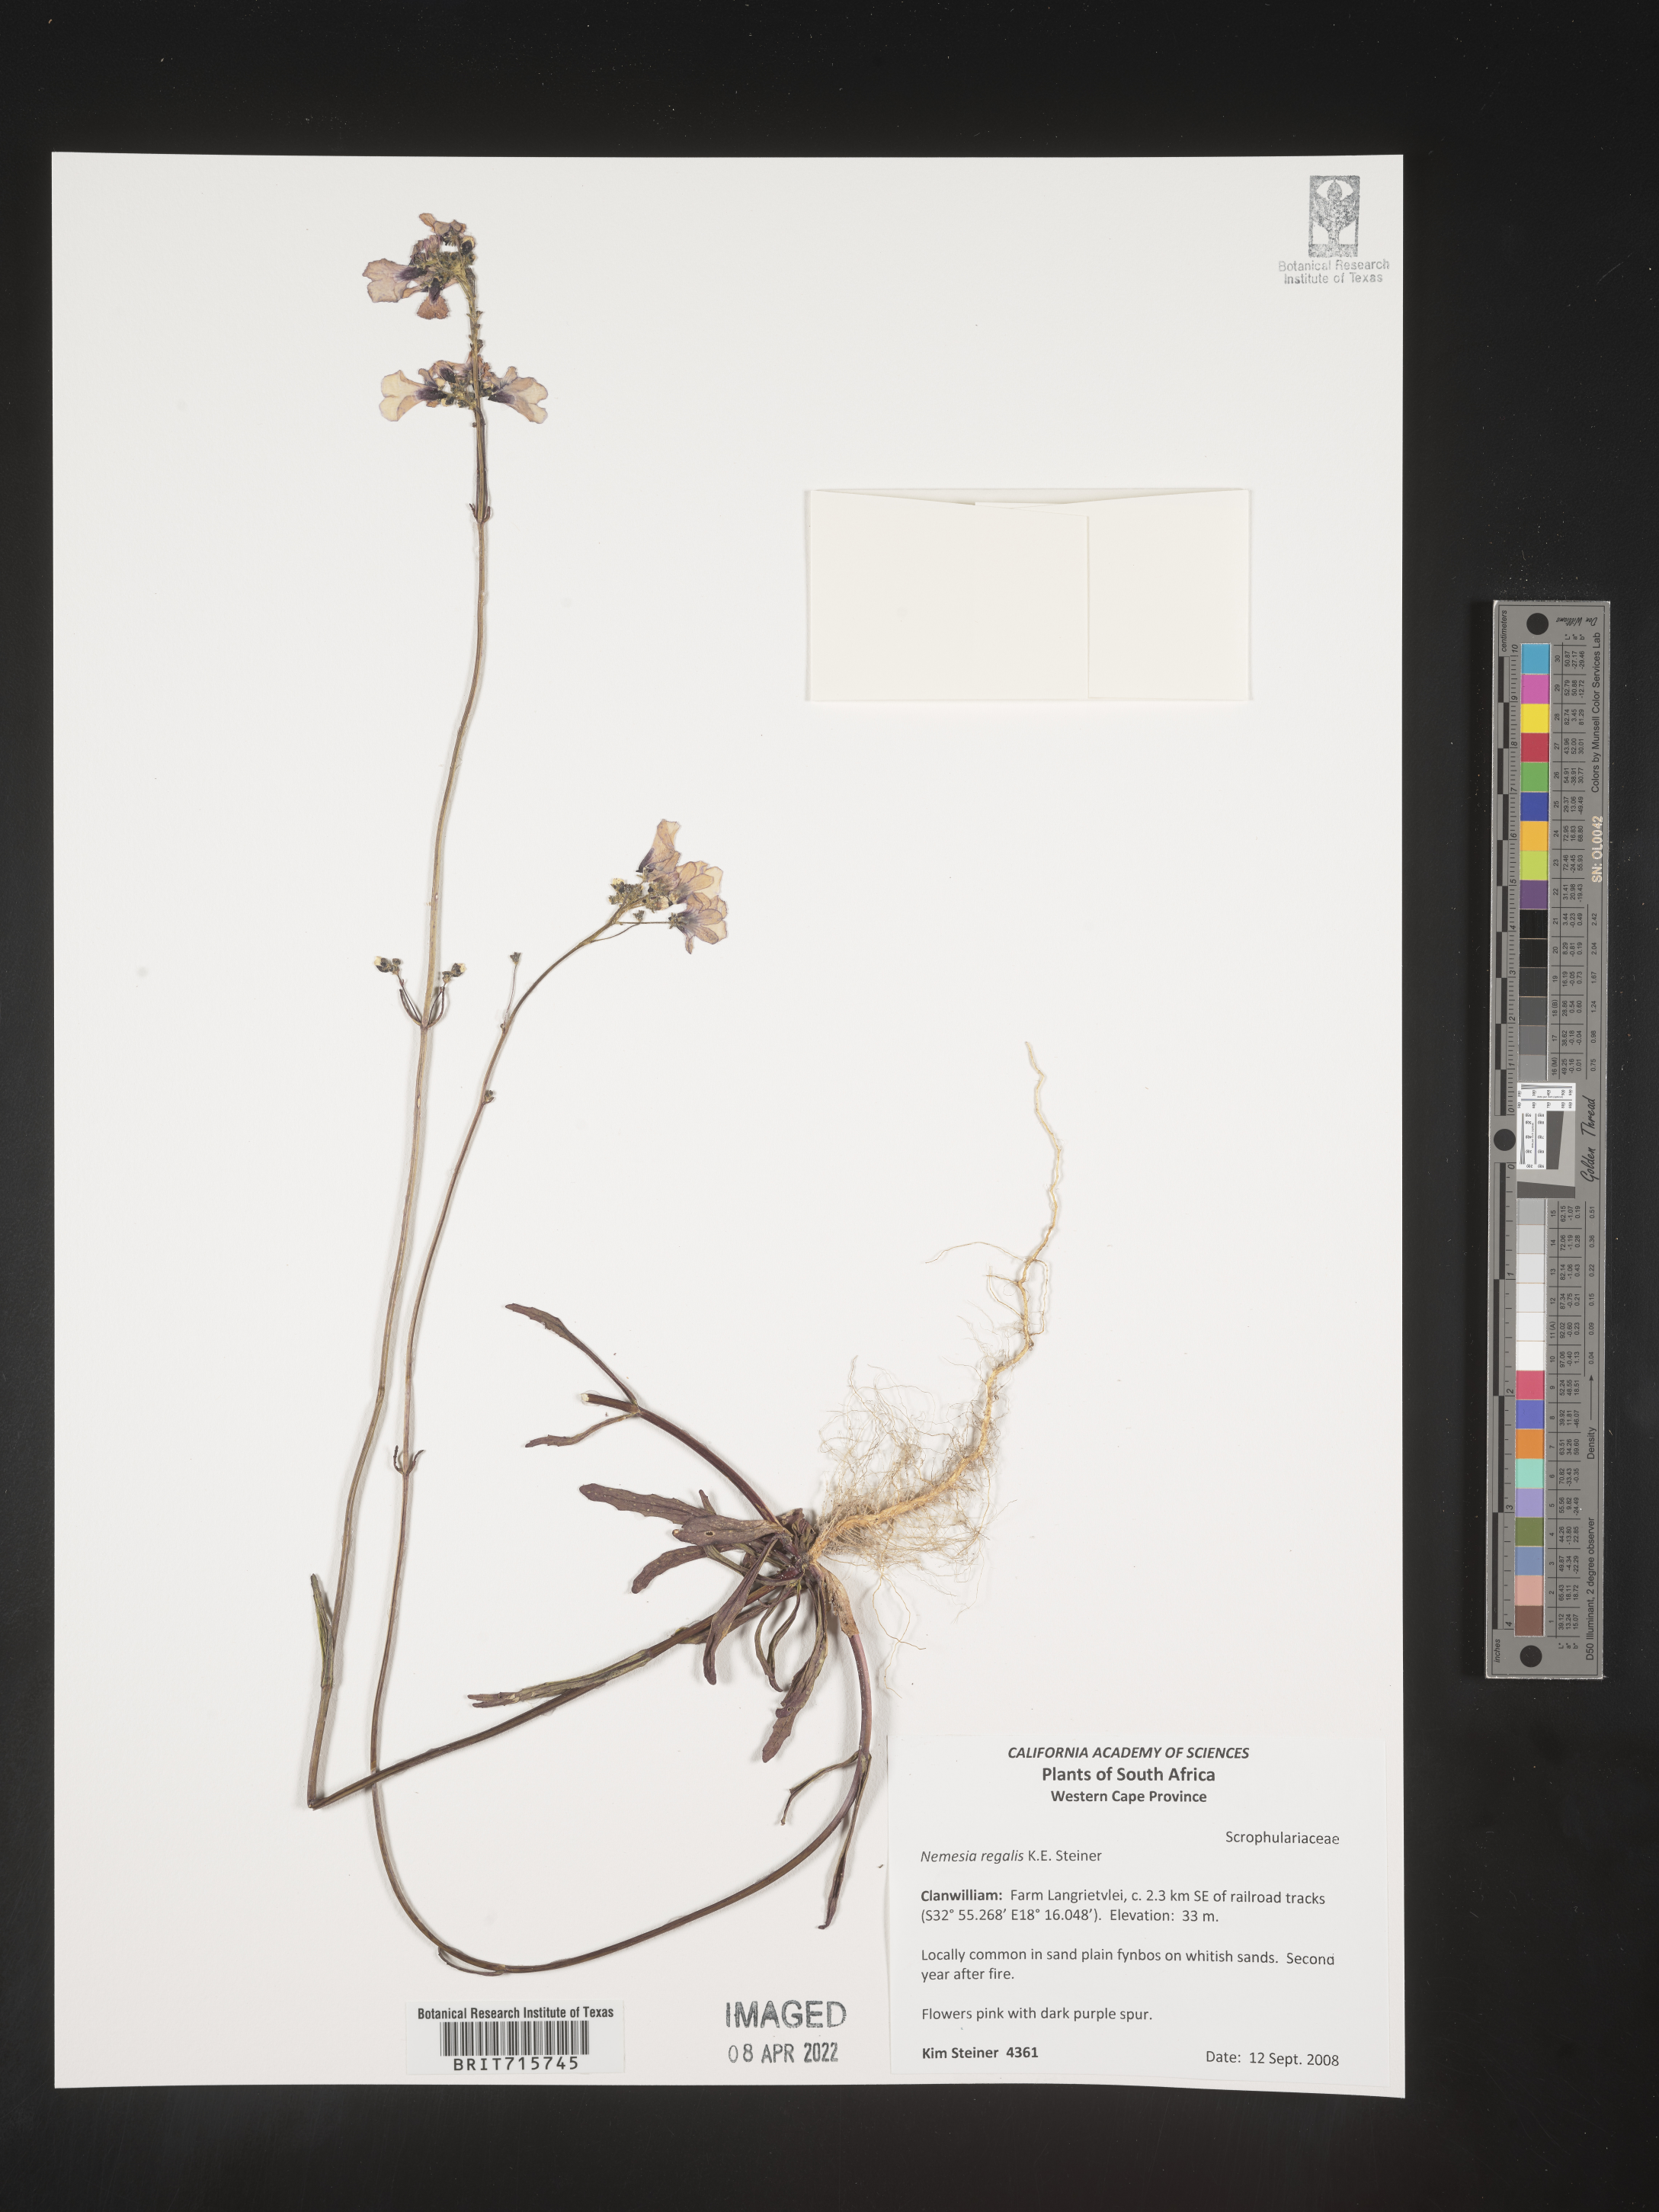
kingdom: Plantae
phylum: Tracheophyta
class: Magnoliopsida
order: Lamiales
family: Scrophulariaceae
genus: Nemesia
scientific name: Nemesia
